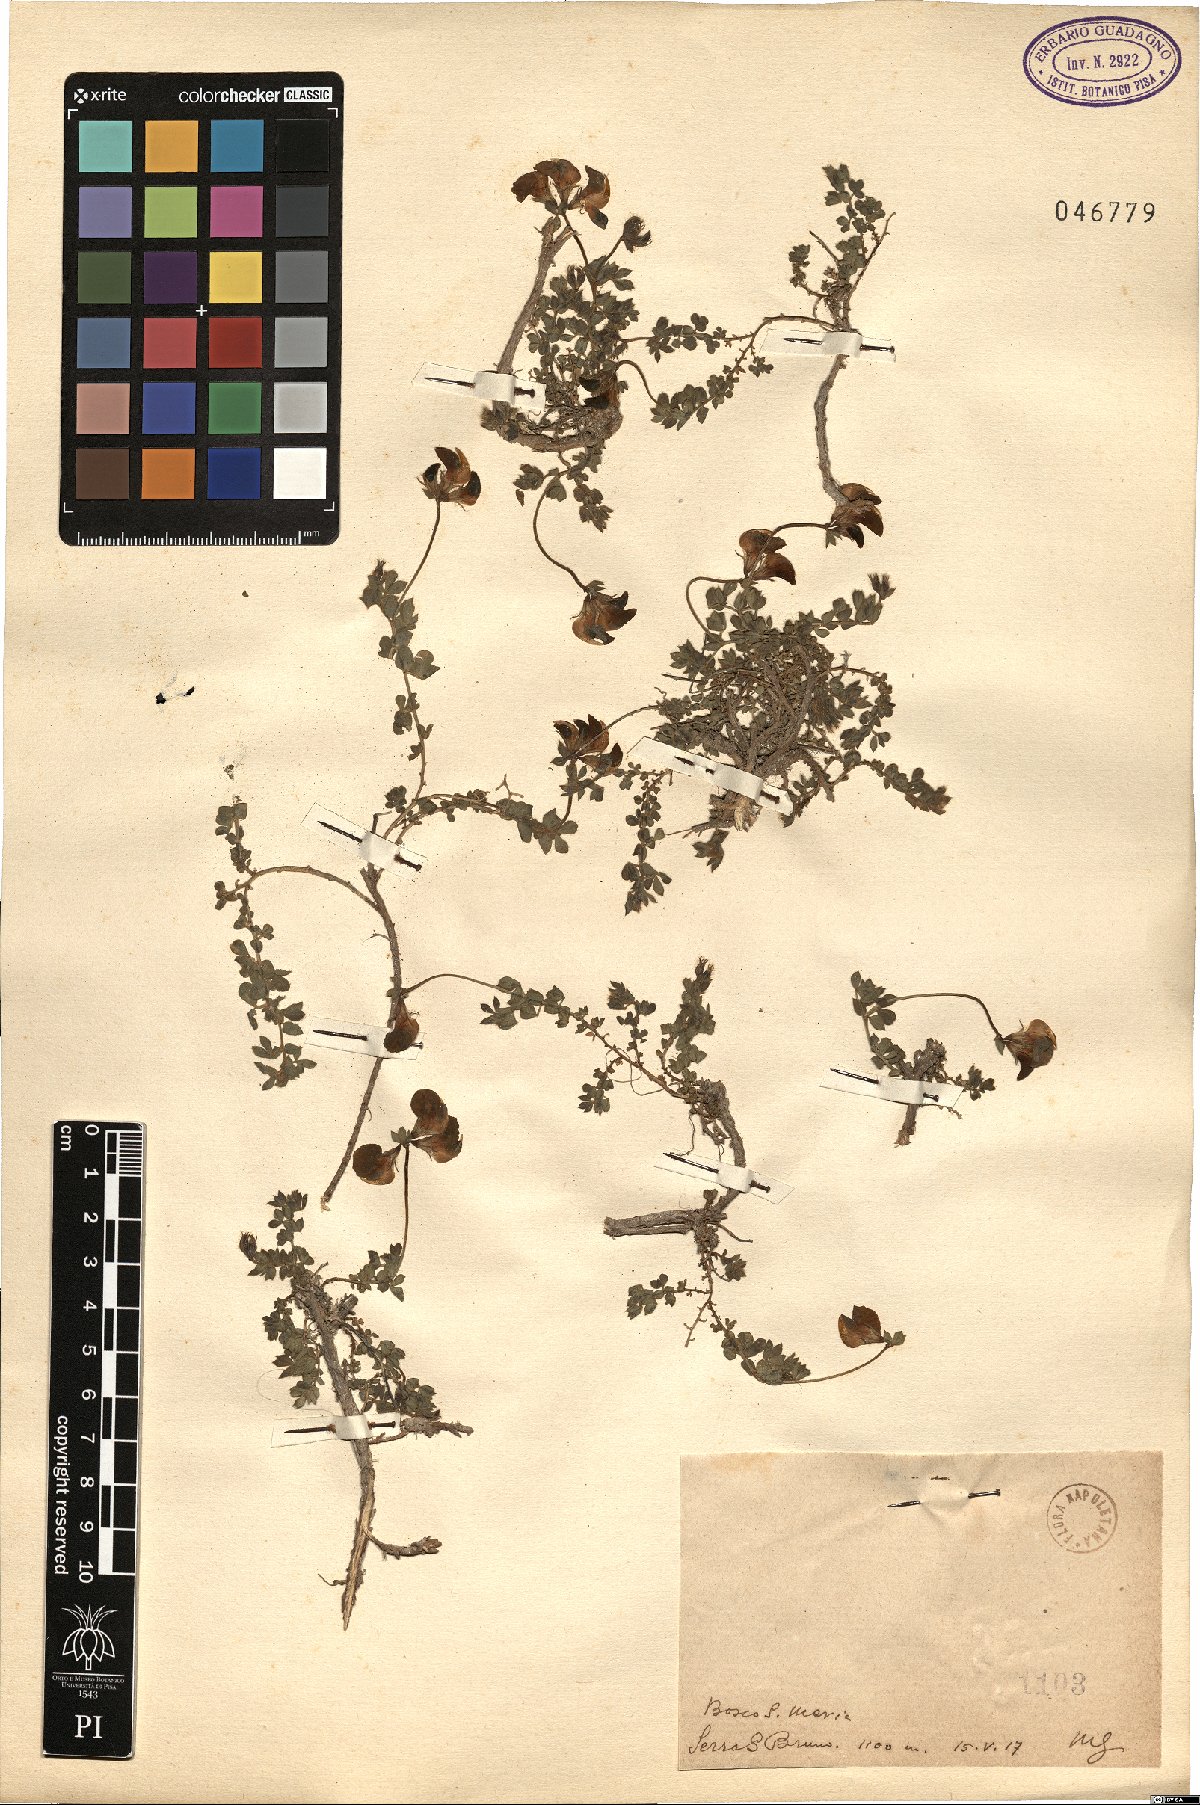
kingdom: Plantae
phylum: Tracheophyta
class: Magnoliopsida
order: Fabales
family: Fabaceae
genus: Lotus
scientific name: Lotus
